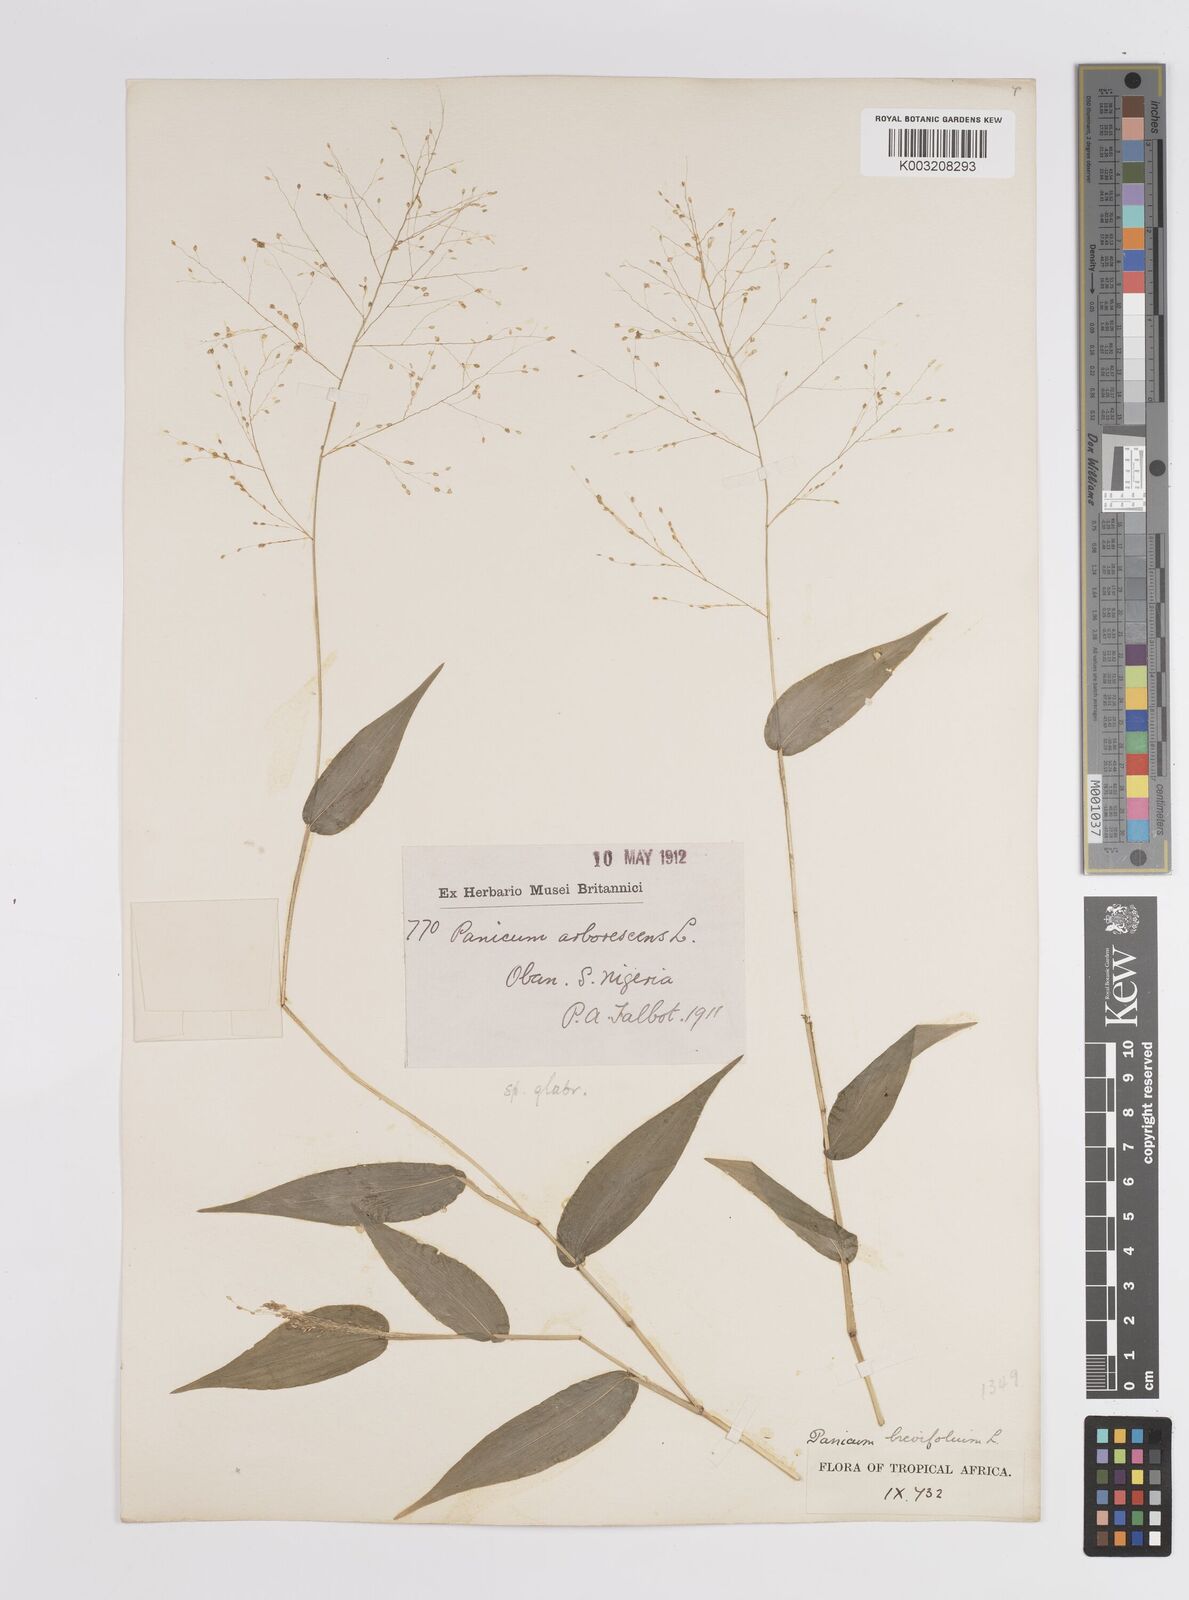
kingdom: Plantae
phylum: Tracheophyta
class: Liliopsida
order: Poales
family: Poaceae
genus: Panicum
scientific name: Panicum brevifolium
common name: Shortleaf panic grass
